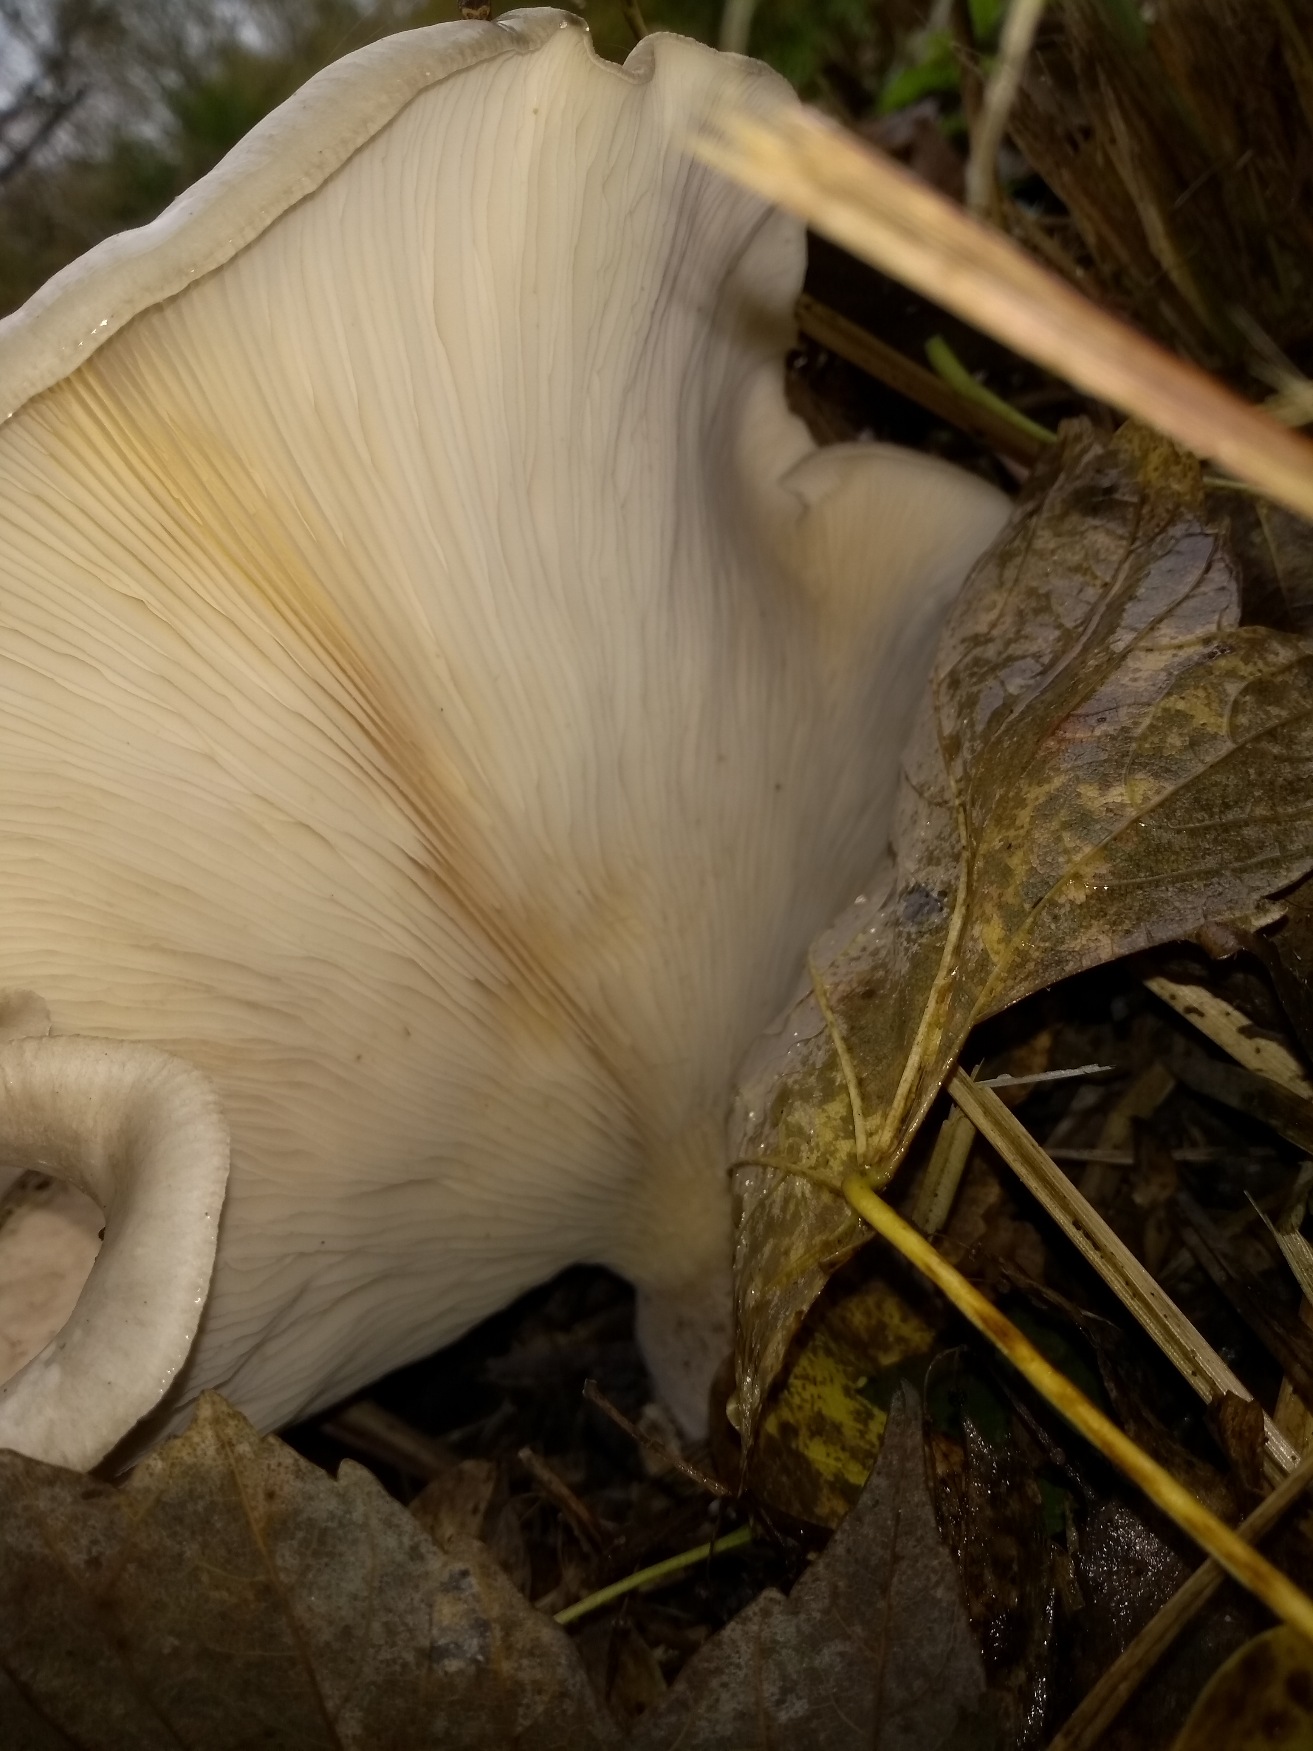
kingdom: Fungi
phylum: Basidiomycota
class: Agaricomycetes
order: Agaricales
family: Tricholomataceae
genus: Clitocybe
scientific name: Clitocybe nebularis
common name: Tåge-tragthat
